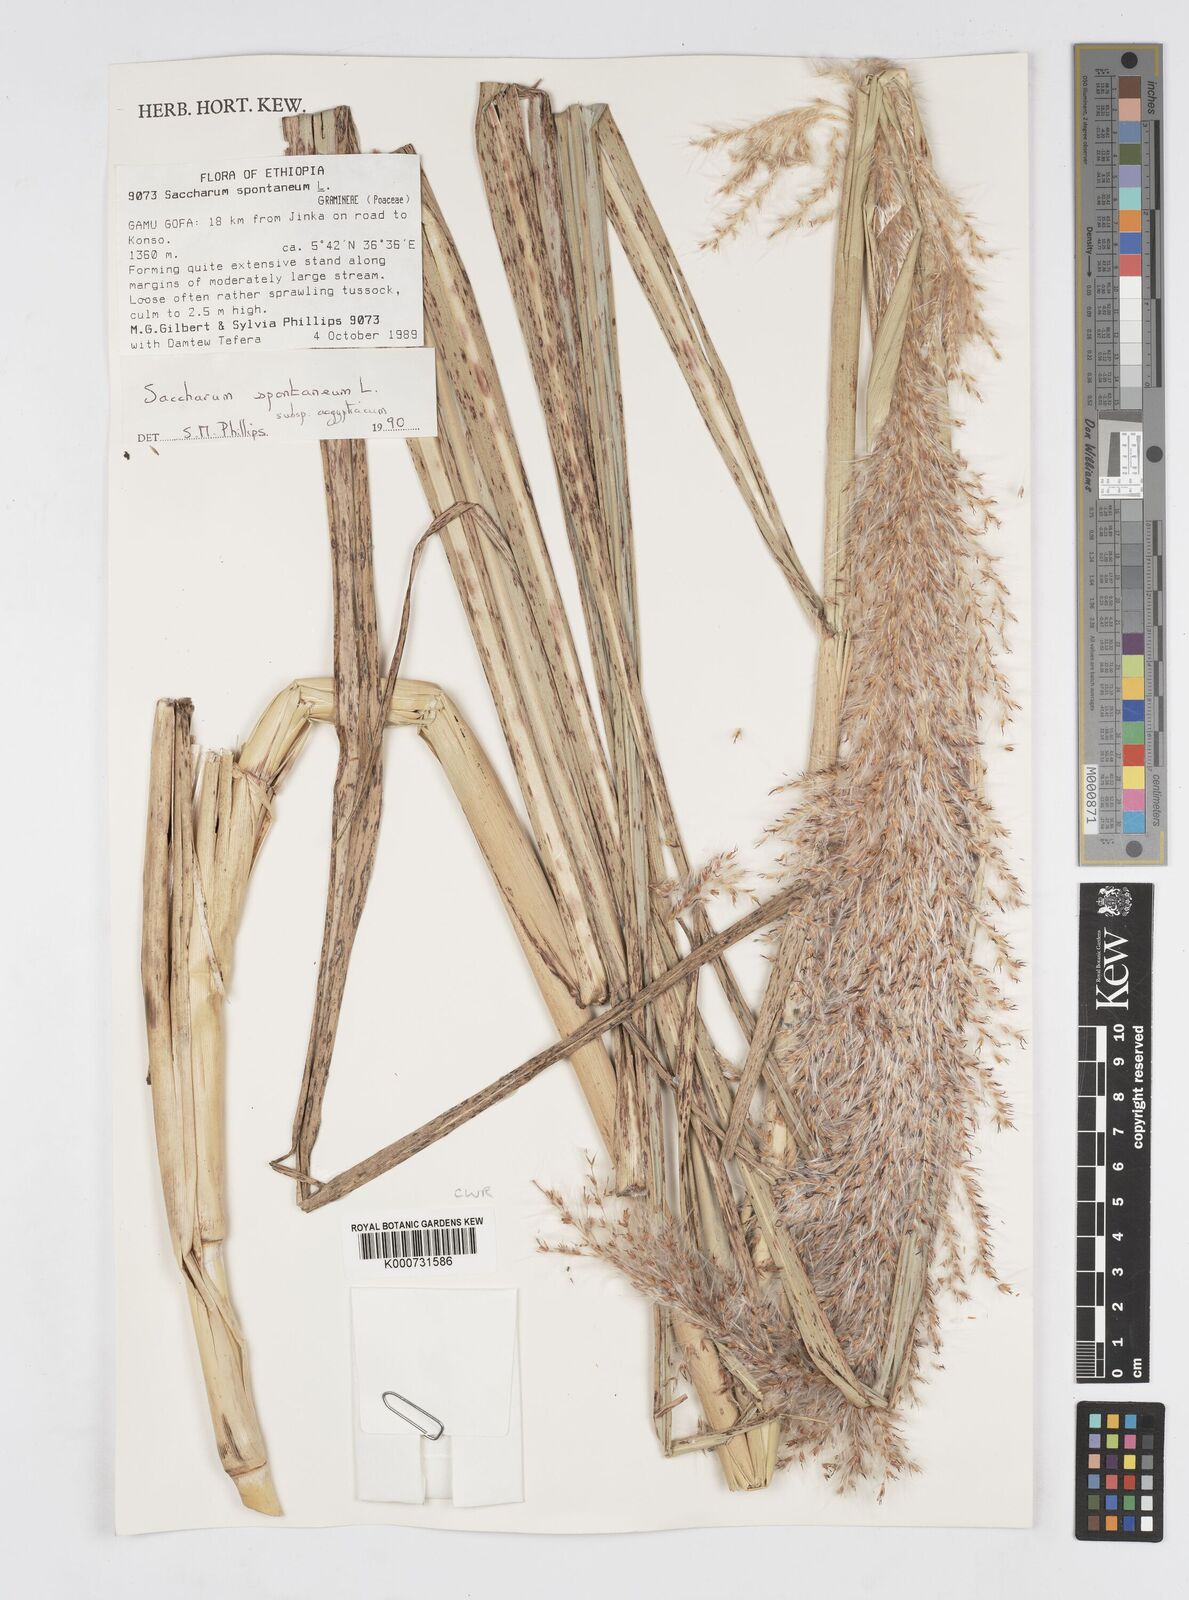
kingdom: Plantae
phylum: Tracheophyta
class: Liliopsida
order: Poales
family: Poaceae
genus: Saccharum
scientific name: Saccharum spontaneum
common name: Wild sugarcane
